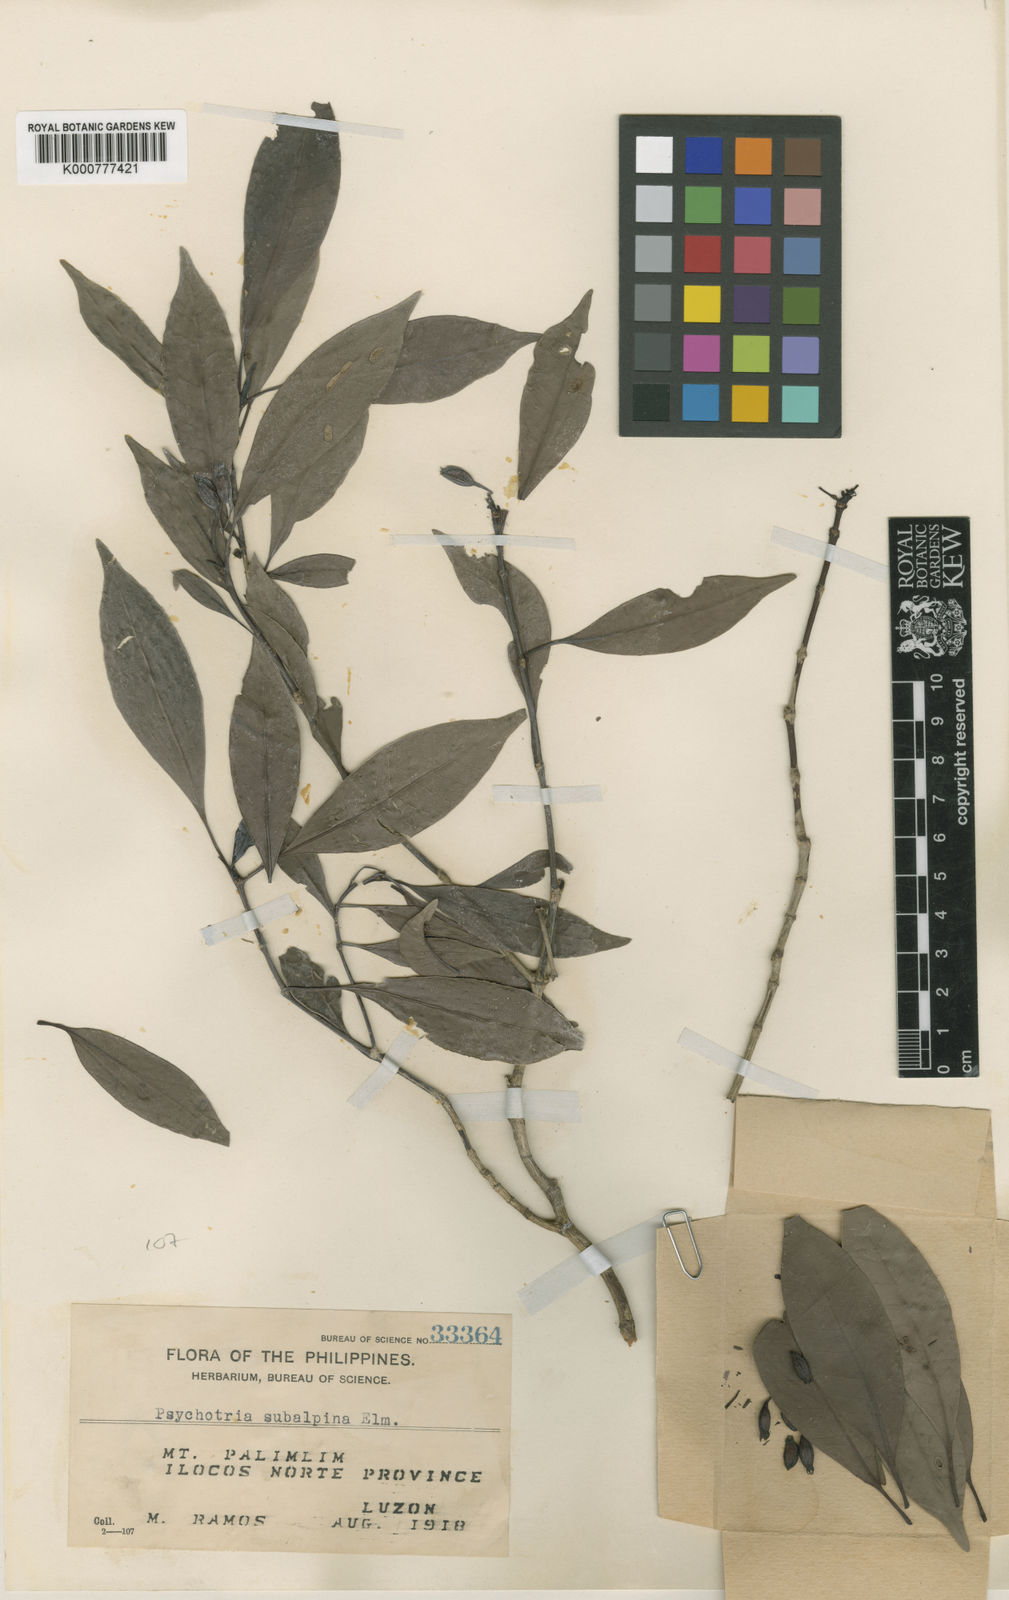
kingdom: Plantae
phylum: Tracheophyta
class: Magnoliopsida
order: Gentianales
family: Rubiaceae
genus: Psychotria
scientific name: Psychotria subalpina
